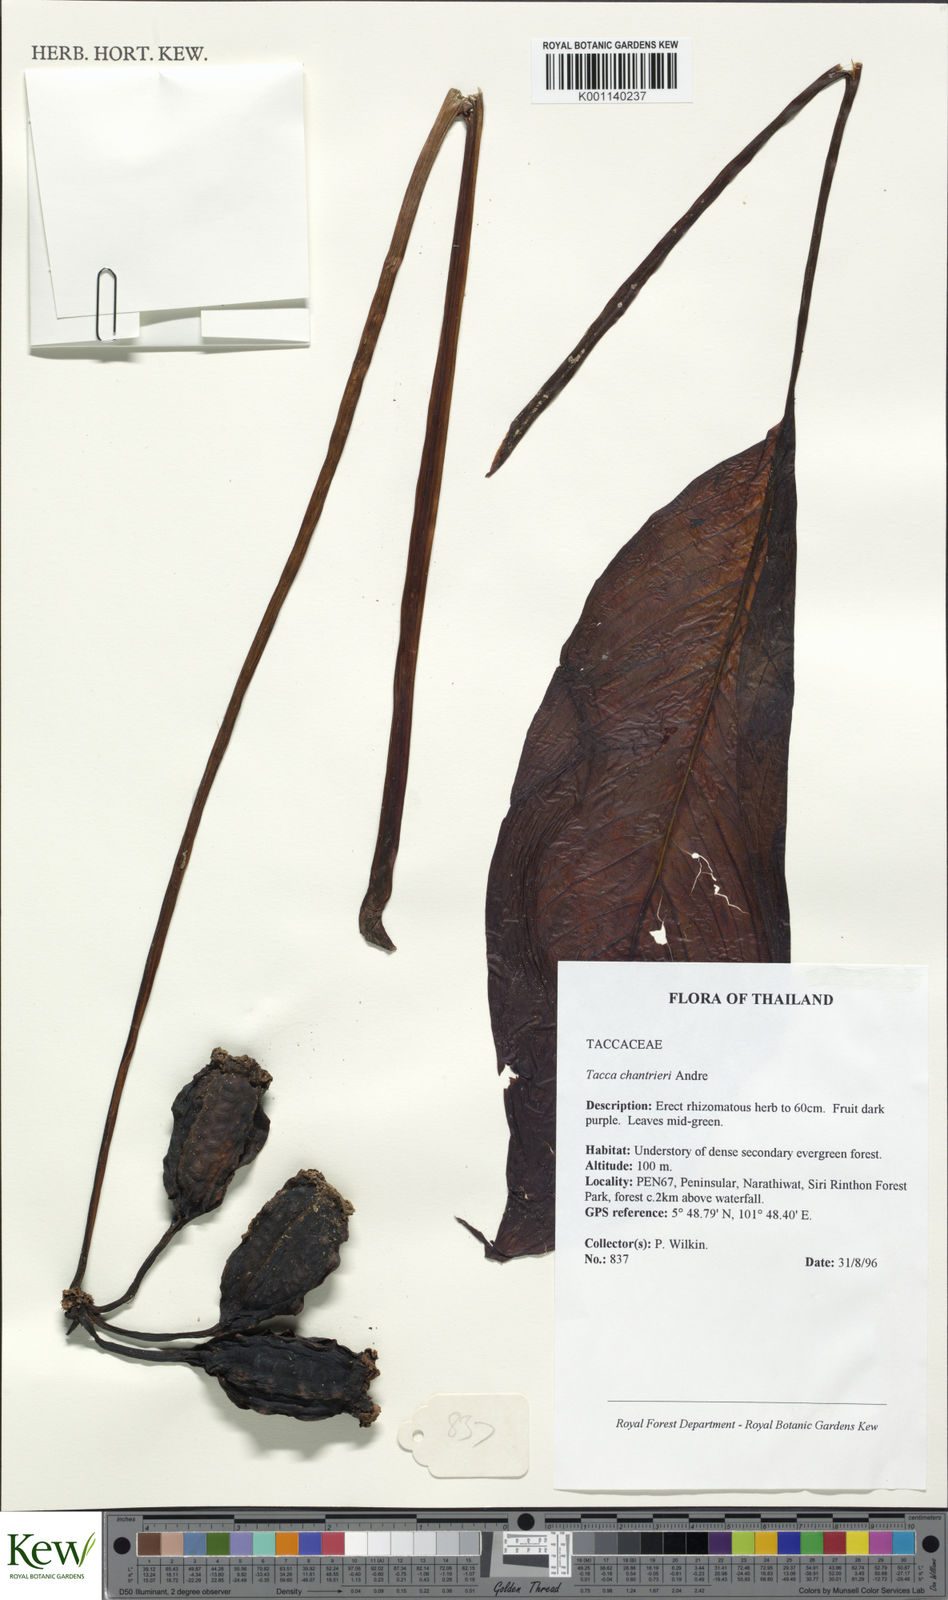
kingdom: Plantae
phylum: Tracheophyta
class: Liliopsida
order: Dioscoreales
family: Dioscoreaceae
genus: Tacca
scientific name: Tacca
